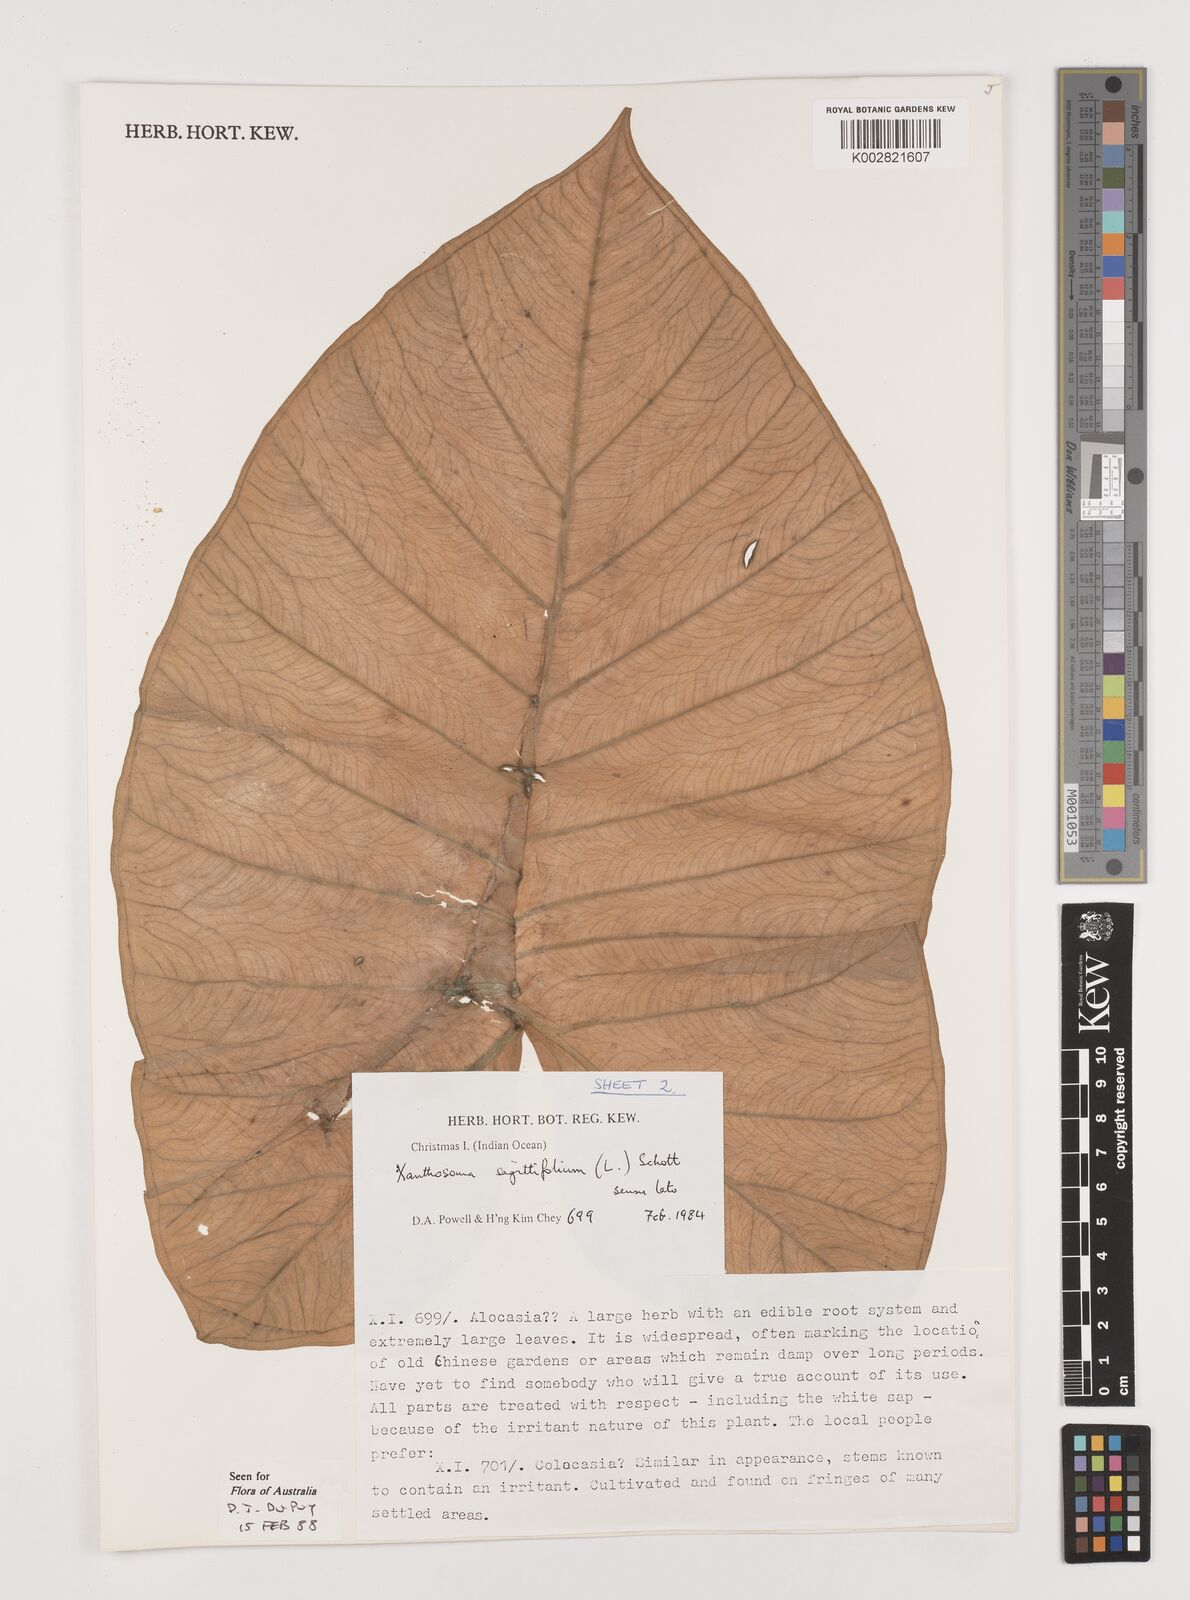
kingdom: Plantae
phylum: Tracheophyta
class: Liliopsida
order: Alismatales
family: Araceae
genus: Xanthosoma
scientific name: Xanthosoma sagittifolium
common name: Arrowleaf elephant's ear
